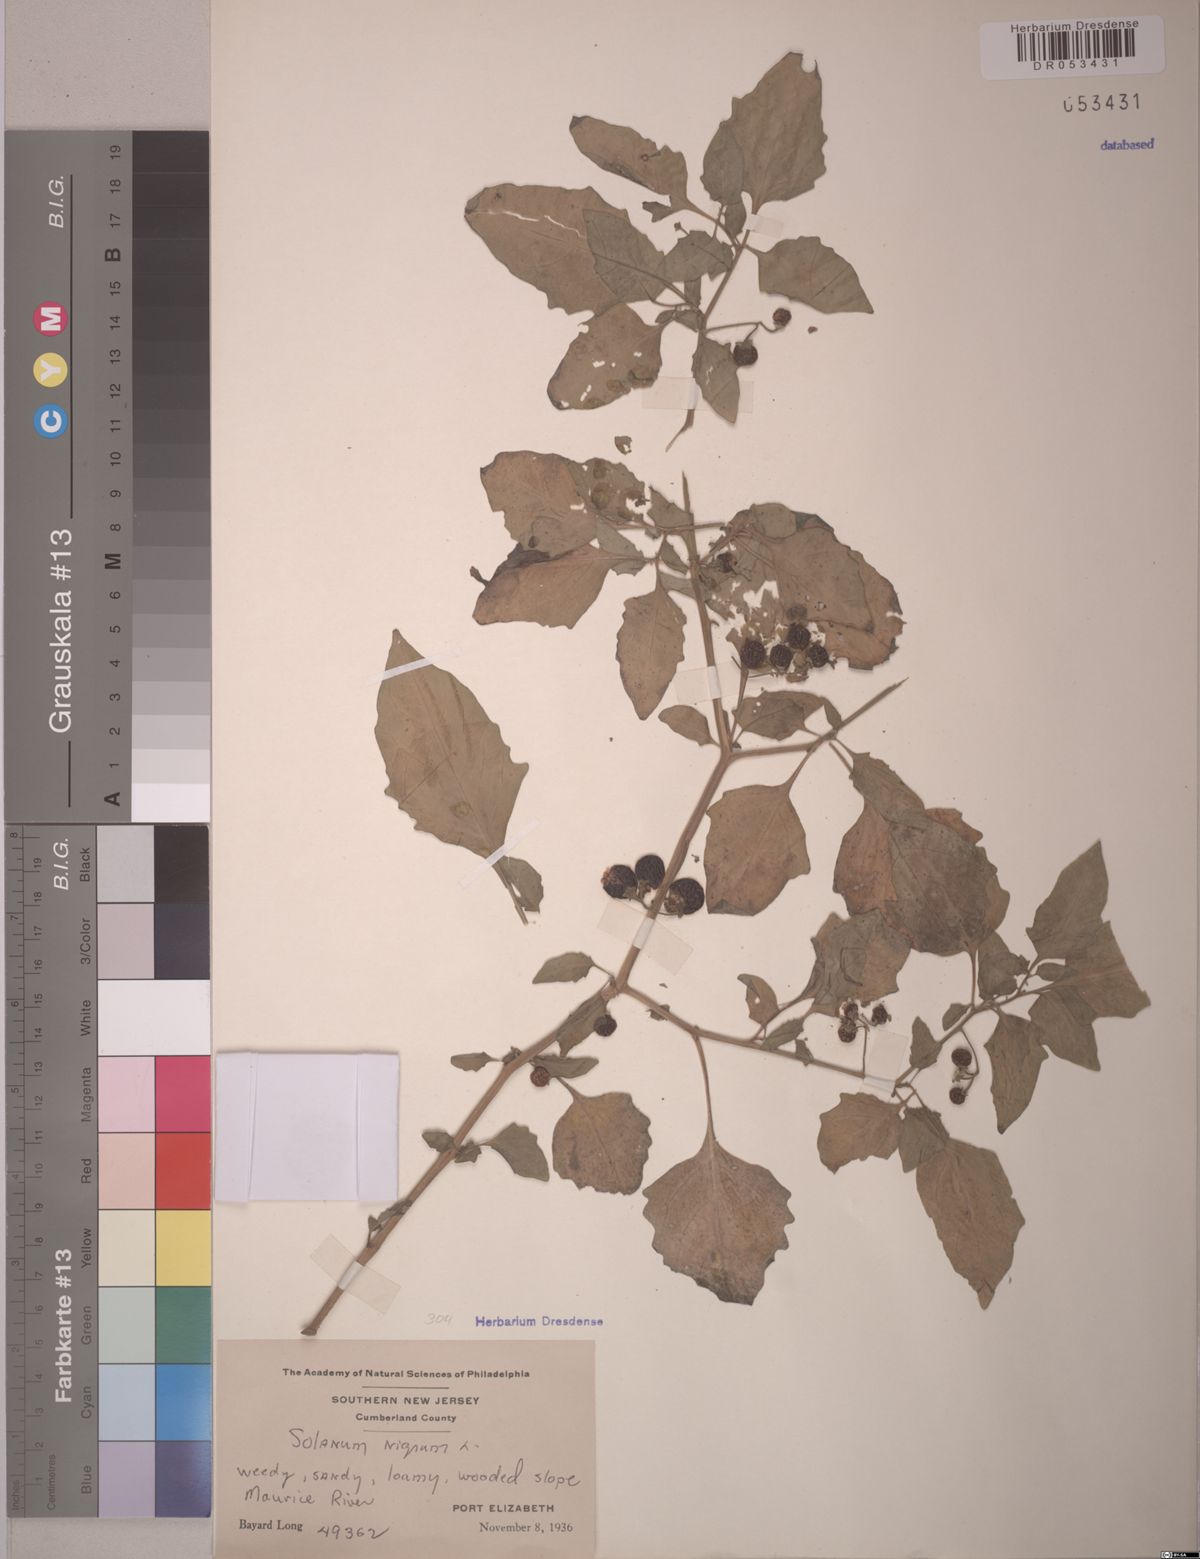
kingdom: Plantae
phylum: Tracheophyta
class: Magnoliopsida
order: Solanales
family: Solanaceae
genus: Solanum
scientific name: Solanum nigrum
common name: Black nightshade
